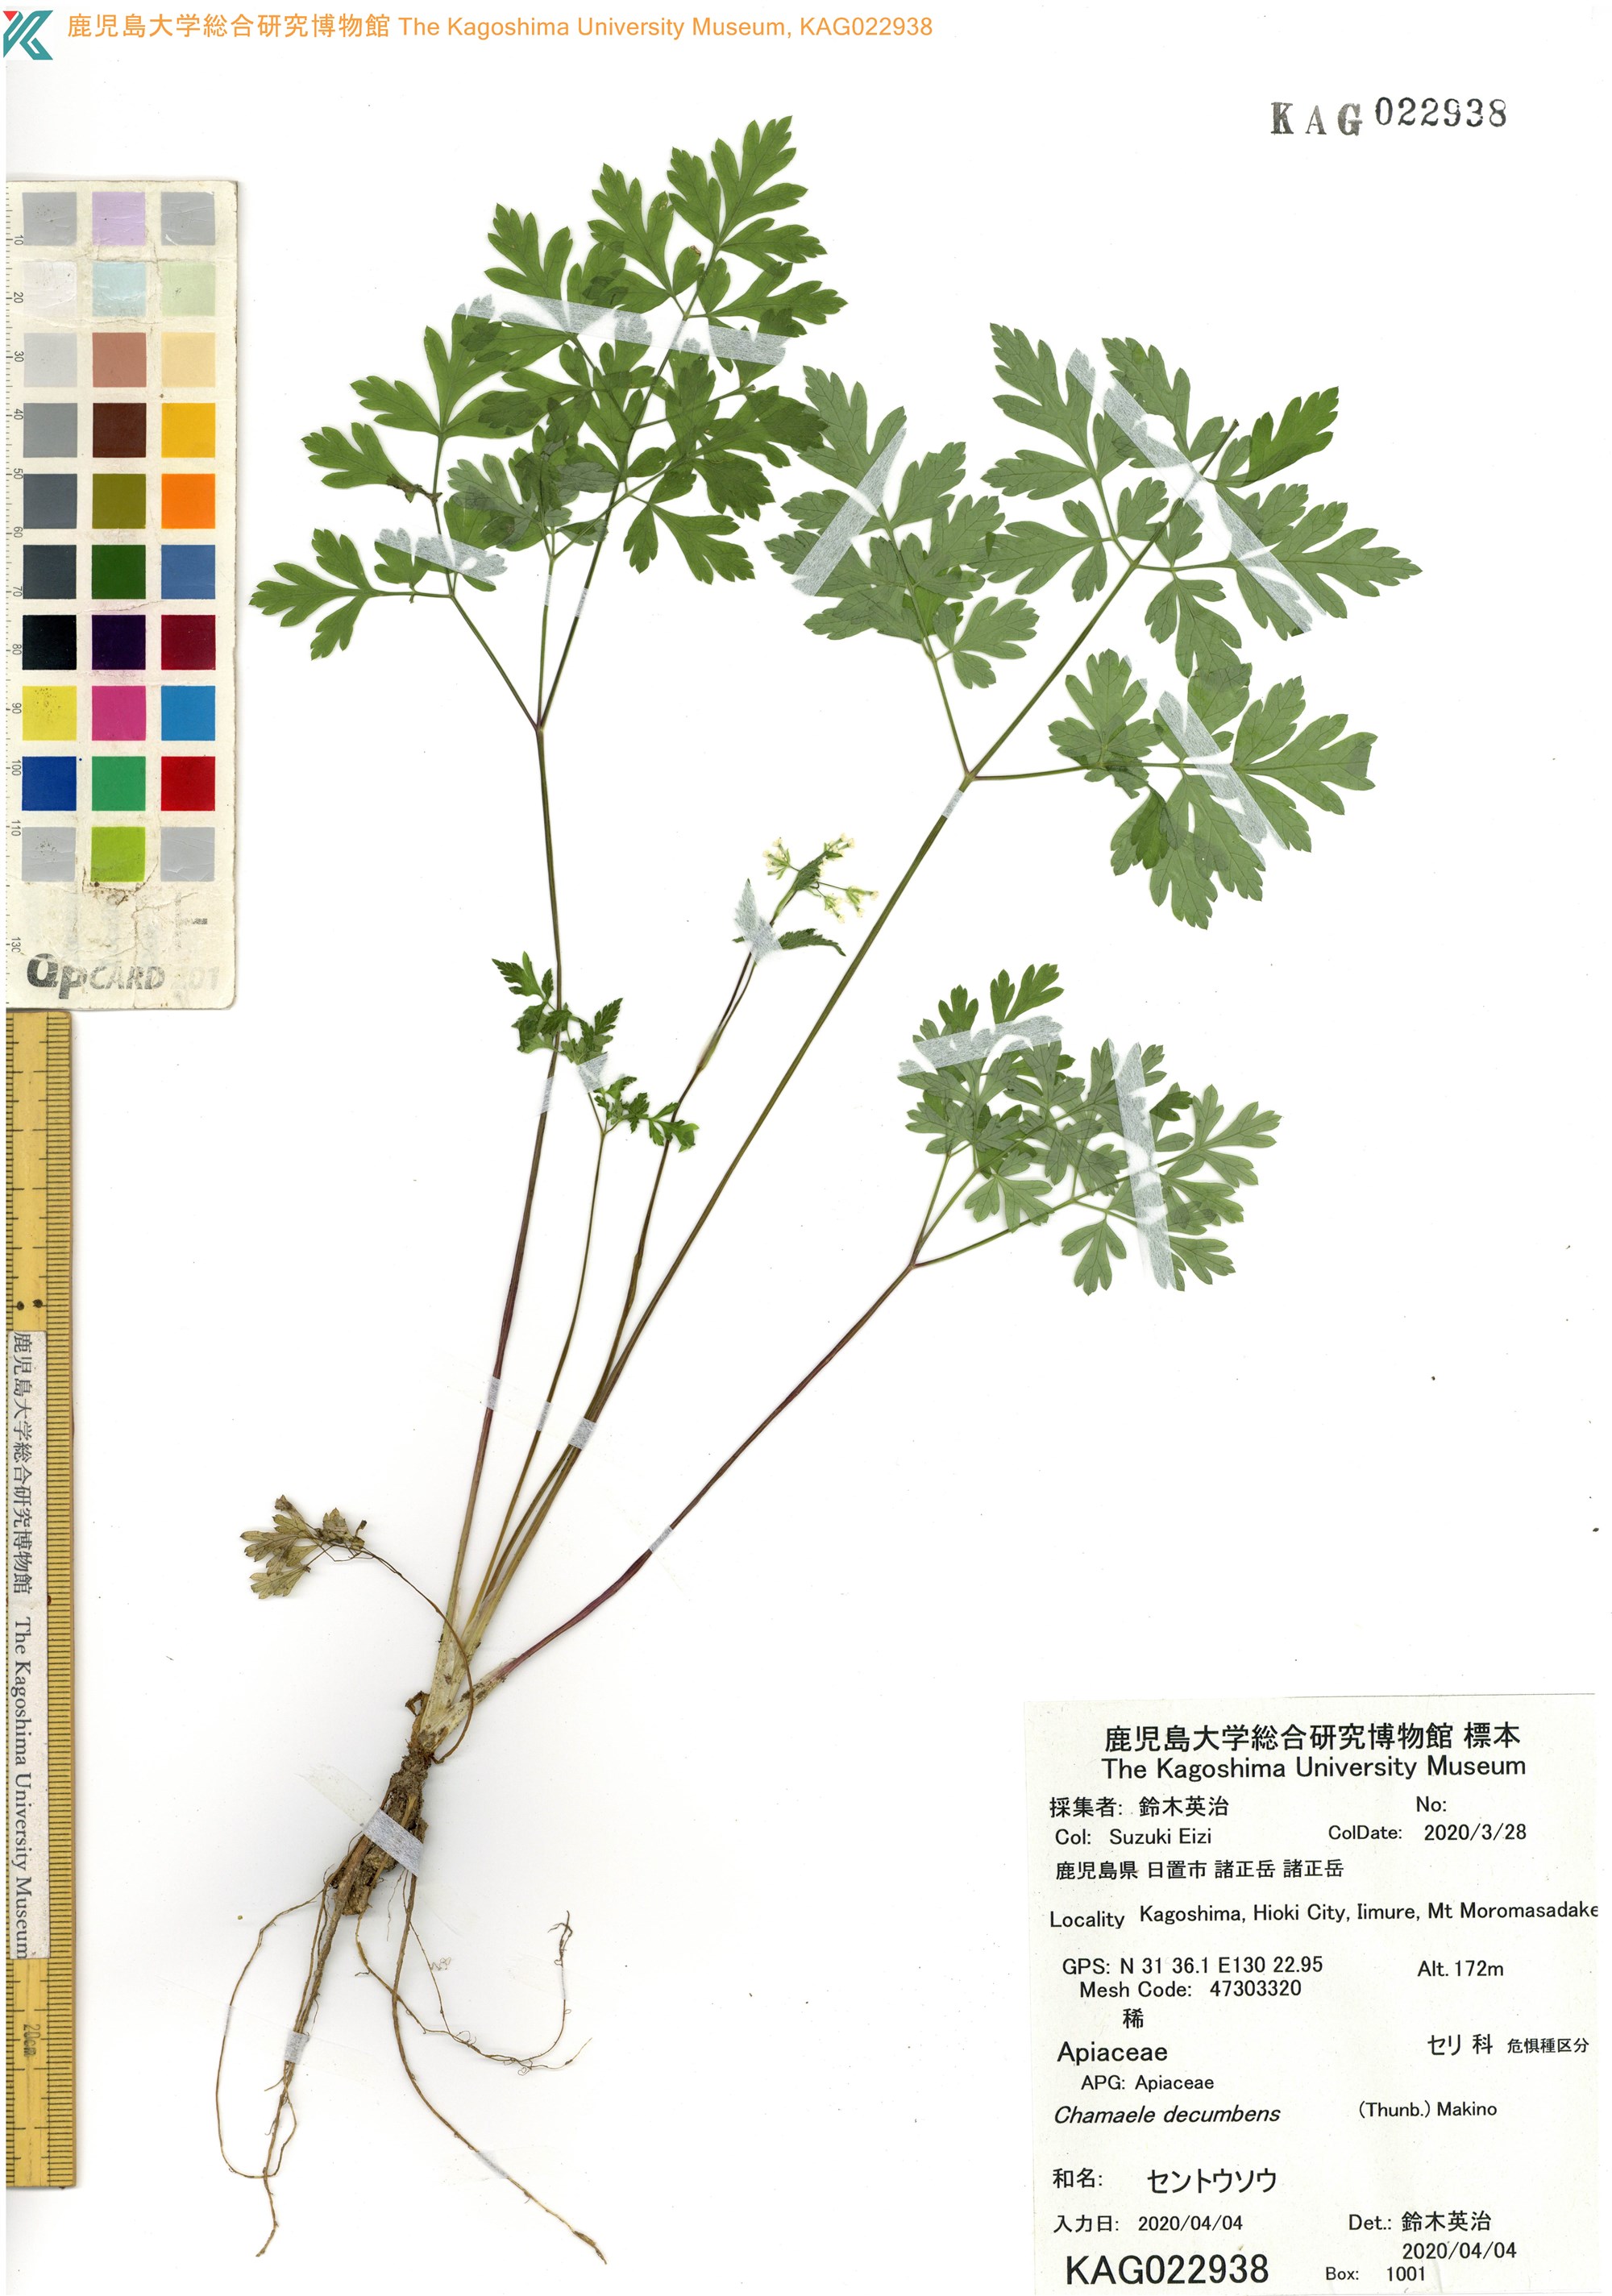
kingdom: Plantae
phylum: Tracheophyta
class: Magnoliopsida
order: Apiales
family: Apiaceae
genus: Aegopodium
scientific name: Aegopodium decumbens
